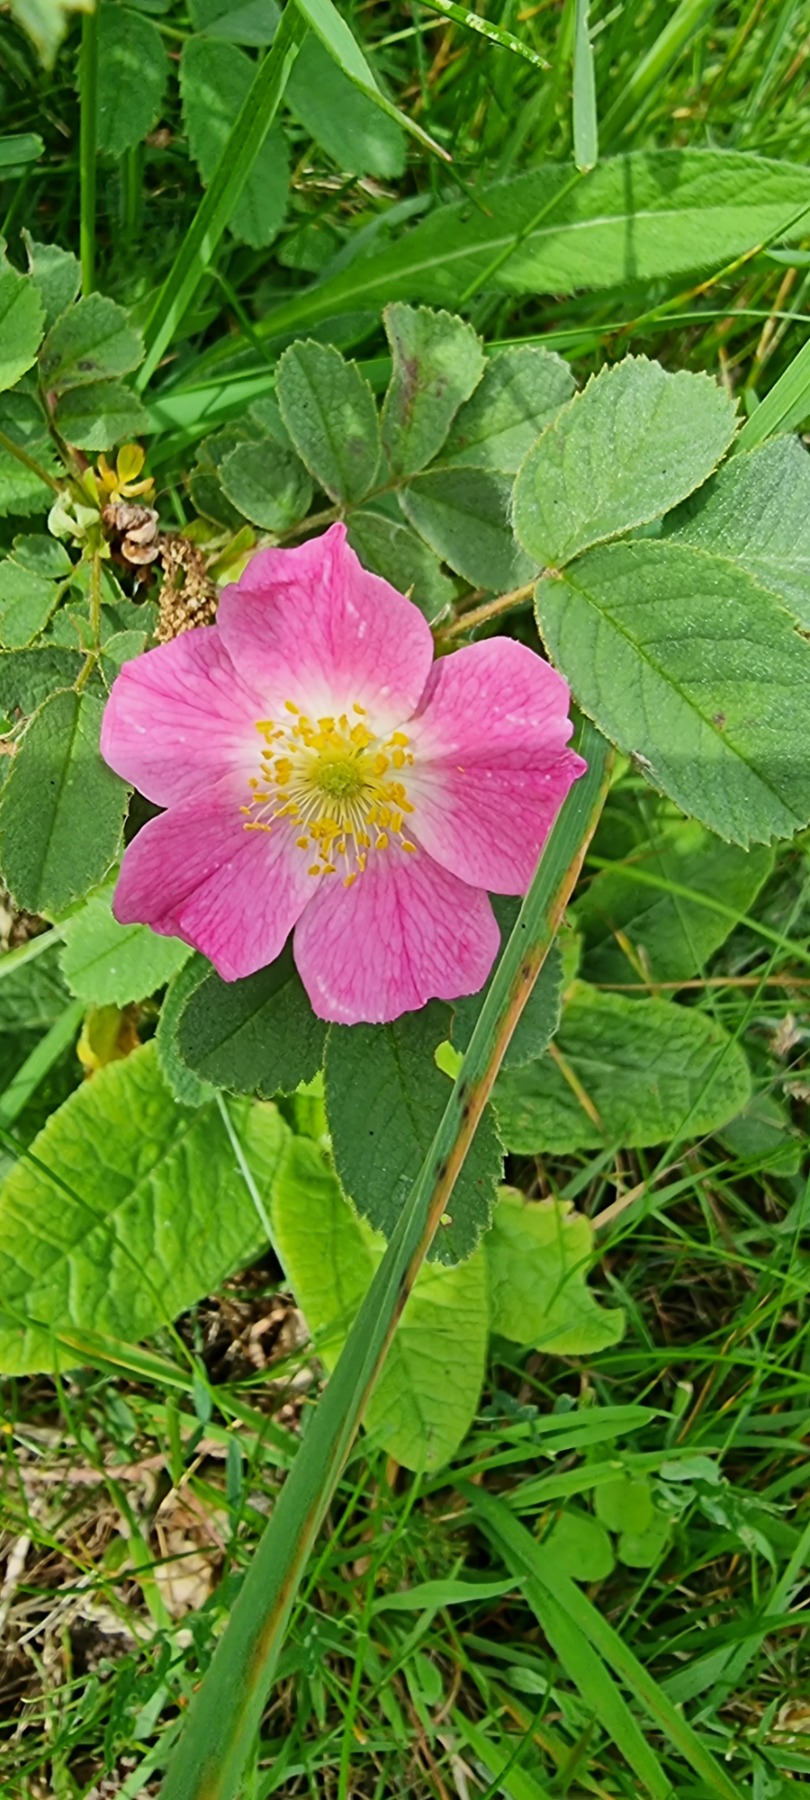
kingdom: Plantae
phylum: Tracheophyta
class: Magnoliopsida
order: Rosales
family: Rosaceae
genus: Rosa
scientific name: Rosa mollis
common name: Blød filt-rose
